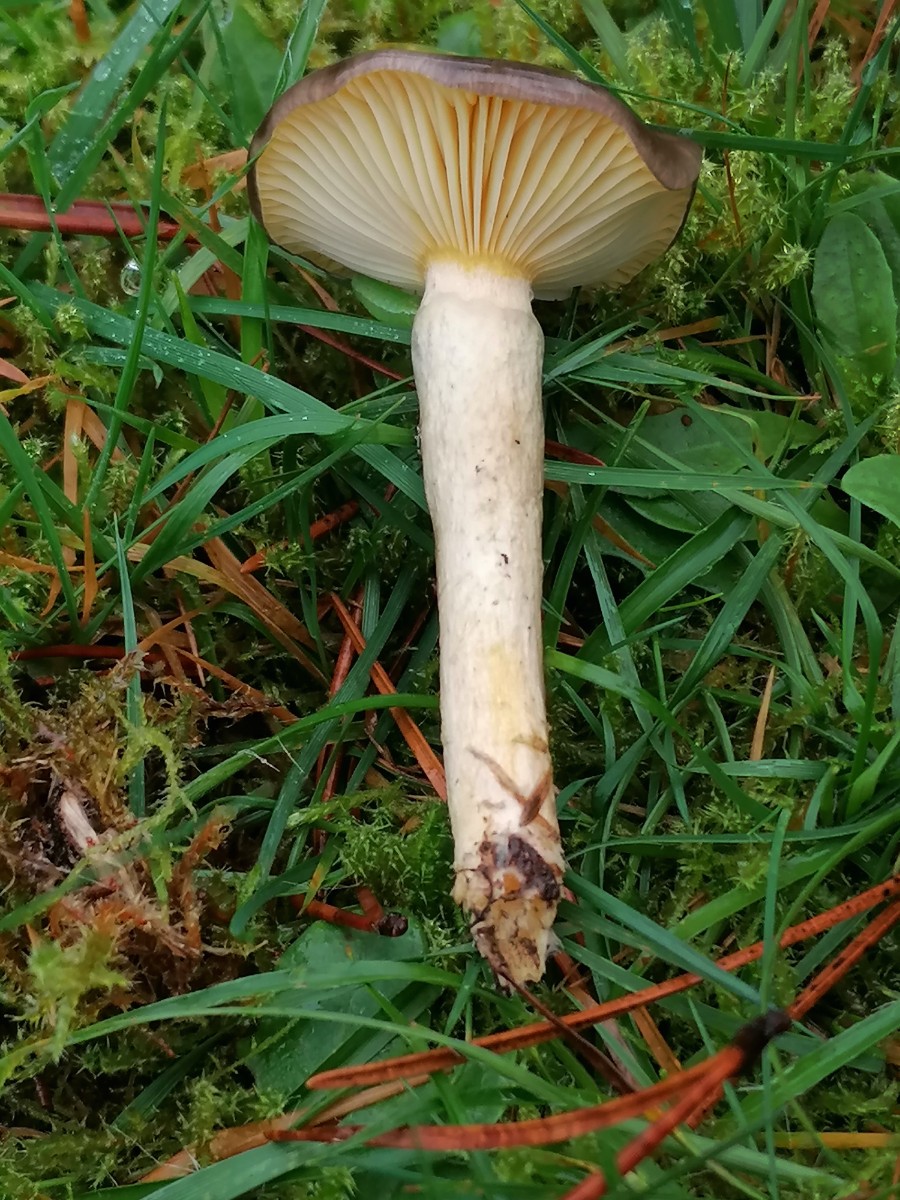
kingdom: Fungi
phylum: Basidiomycota
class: Agaricomycetes
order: Agaricales
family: Hygrophoraceae
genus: Hygrophorus
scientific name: Hygrophorus hypothejus
